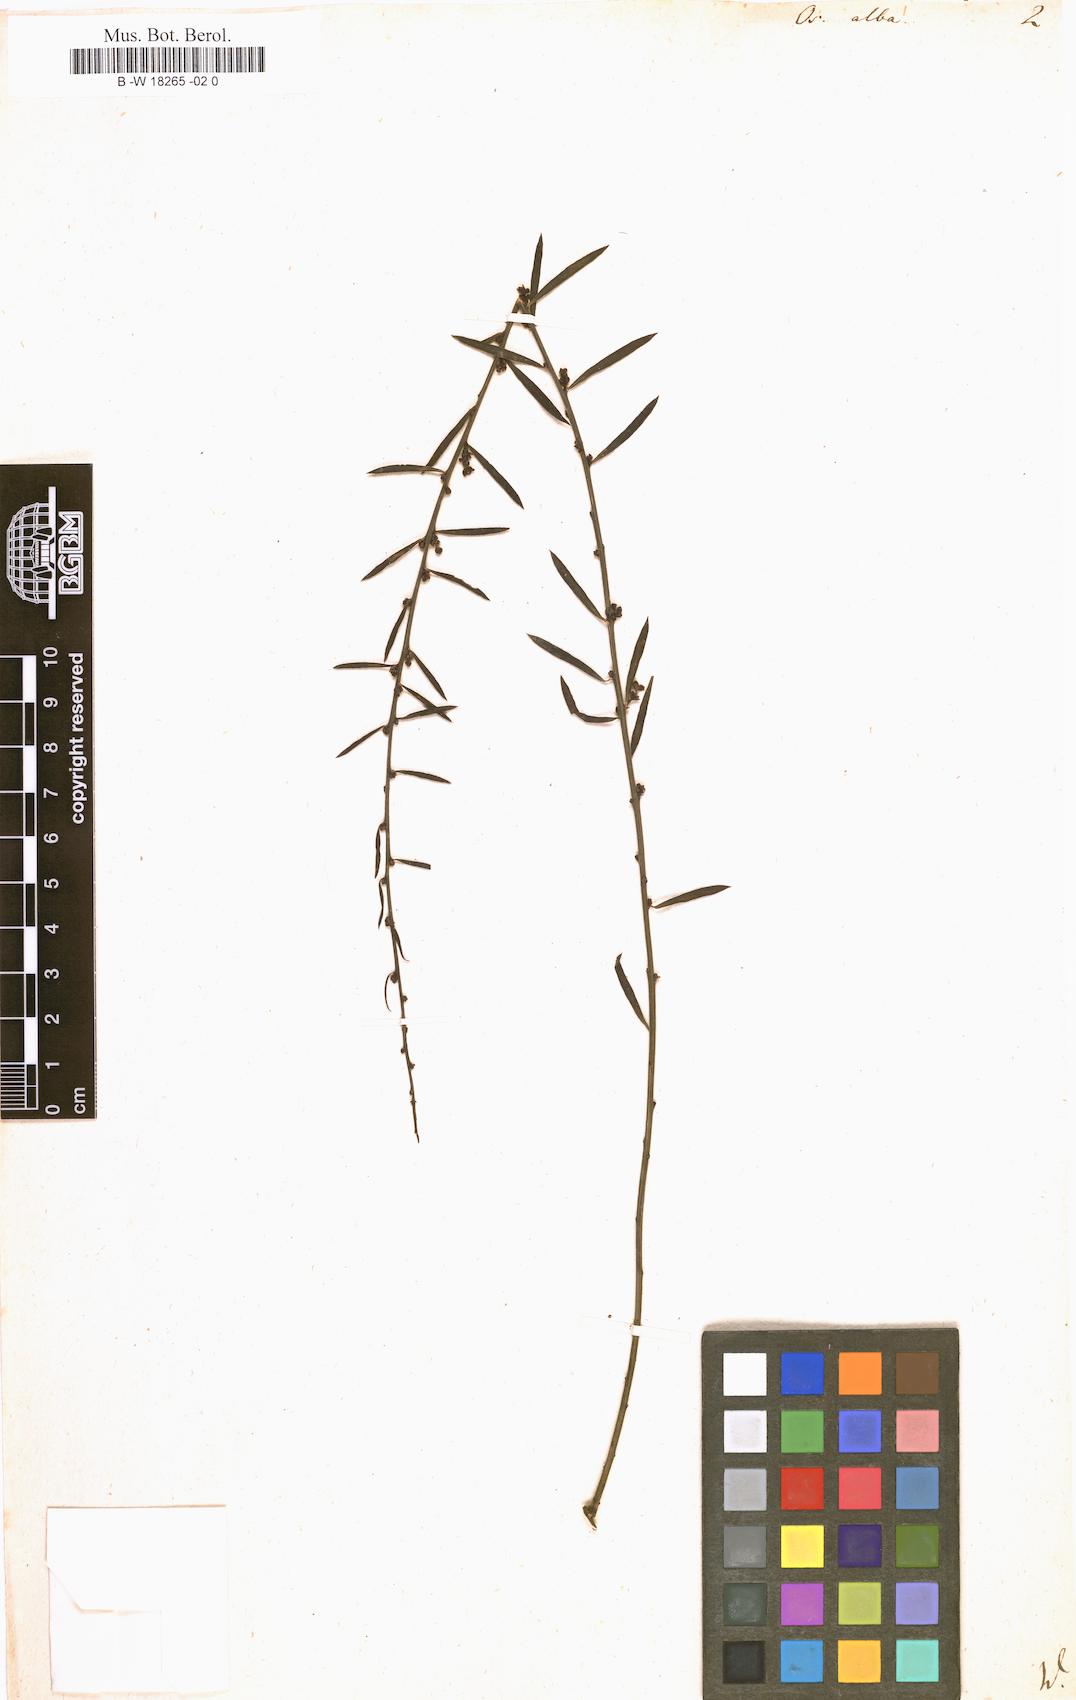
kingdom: Plantae
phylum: Tracheophyta
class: Magnoliopsida
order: Santalales
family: Santalaceae
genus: Osyris
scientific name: Osyris alba
